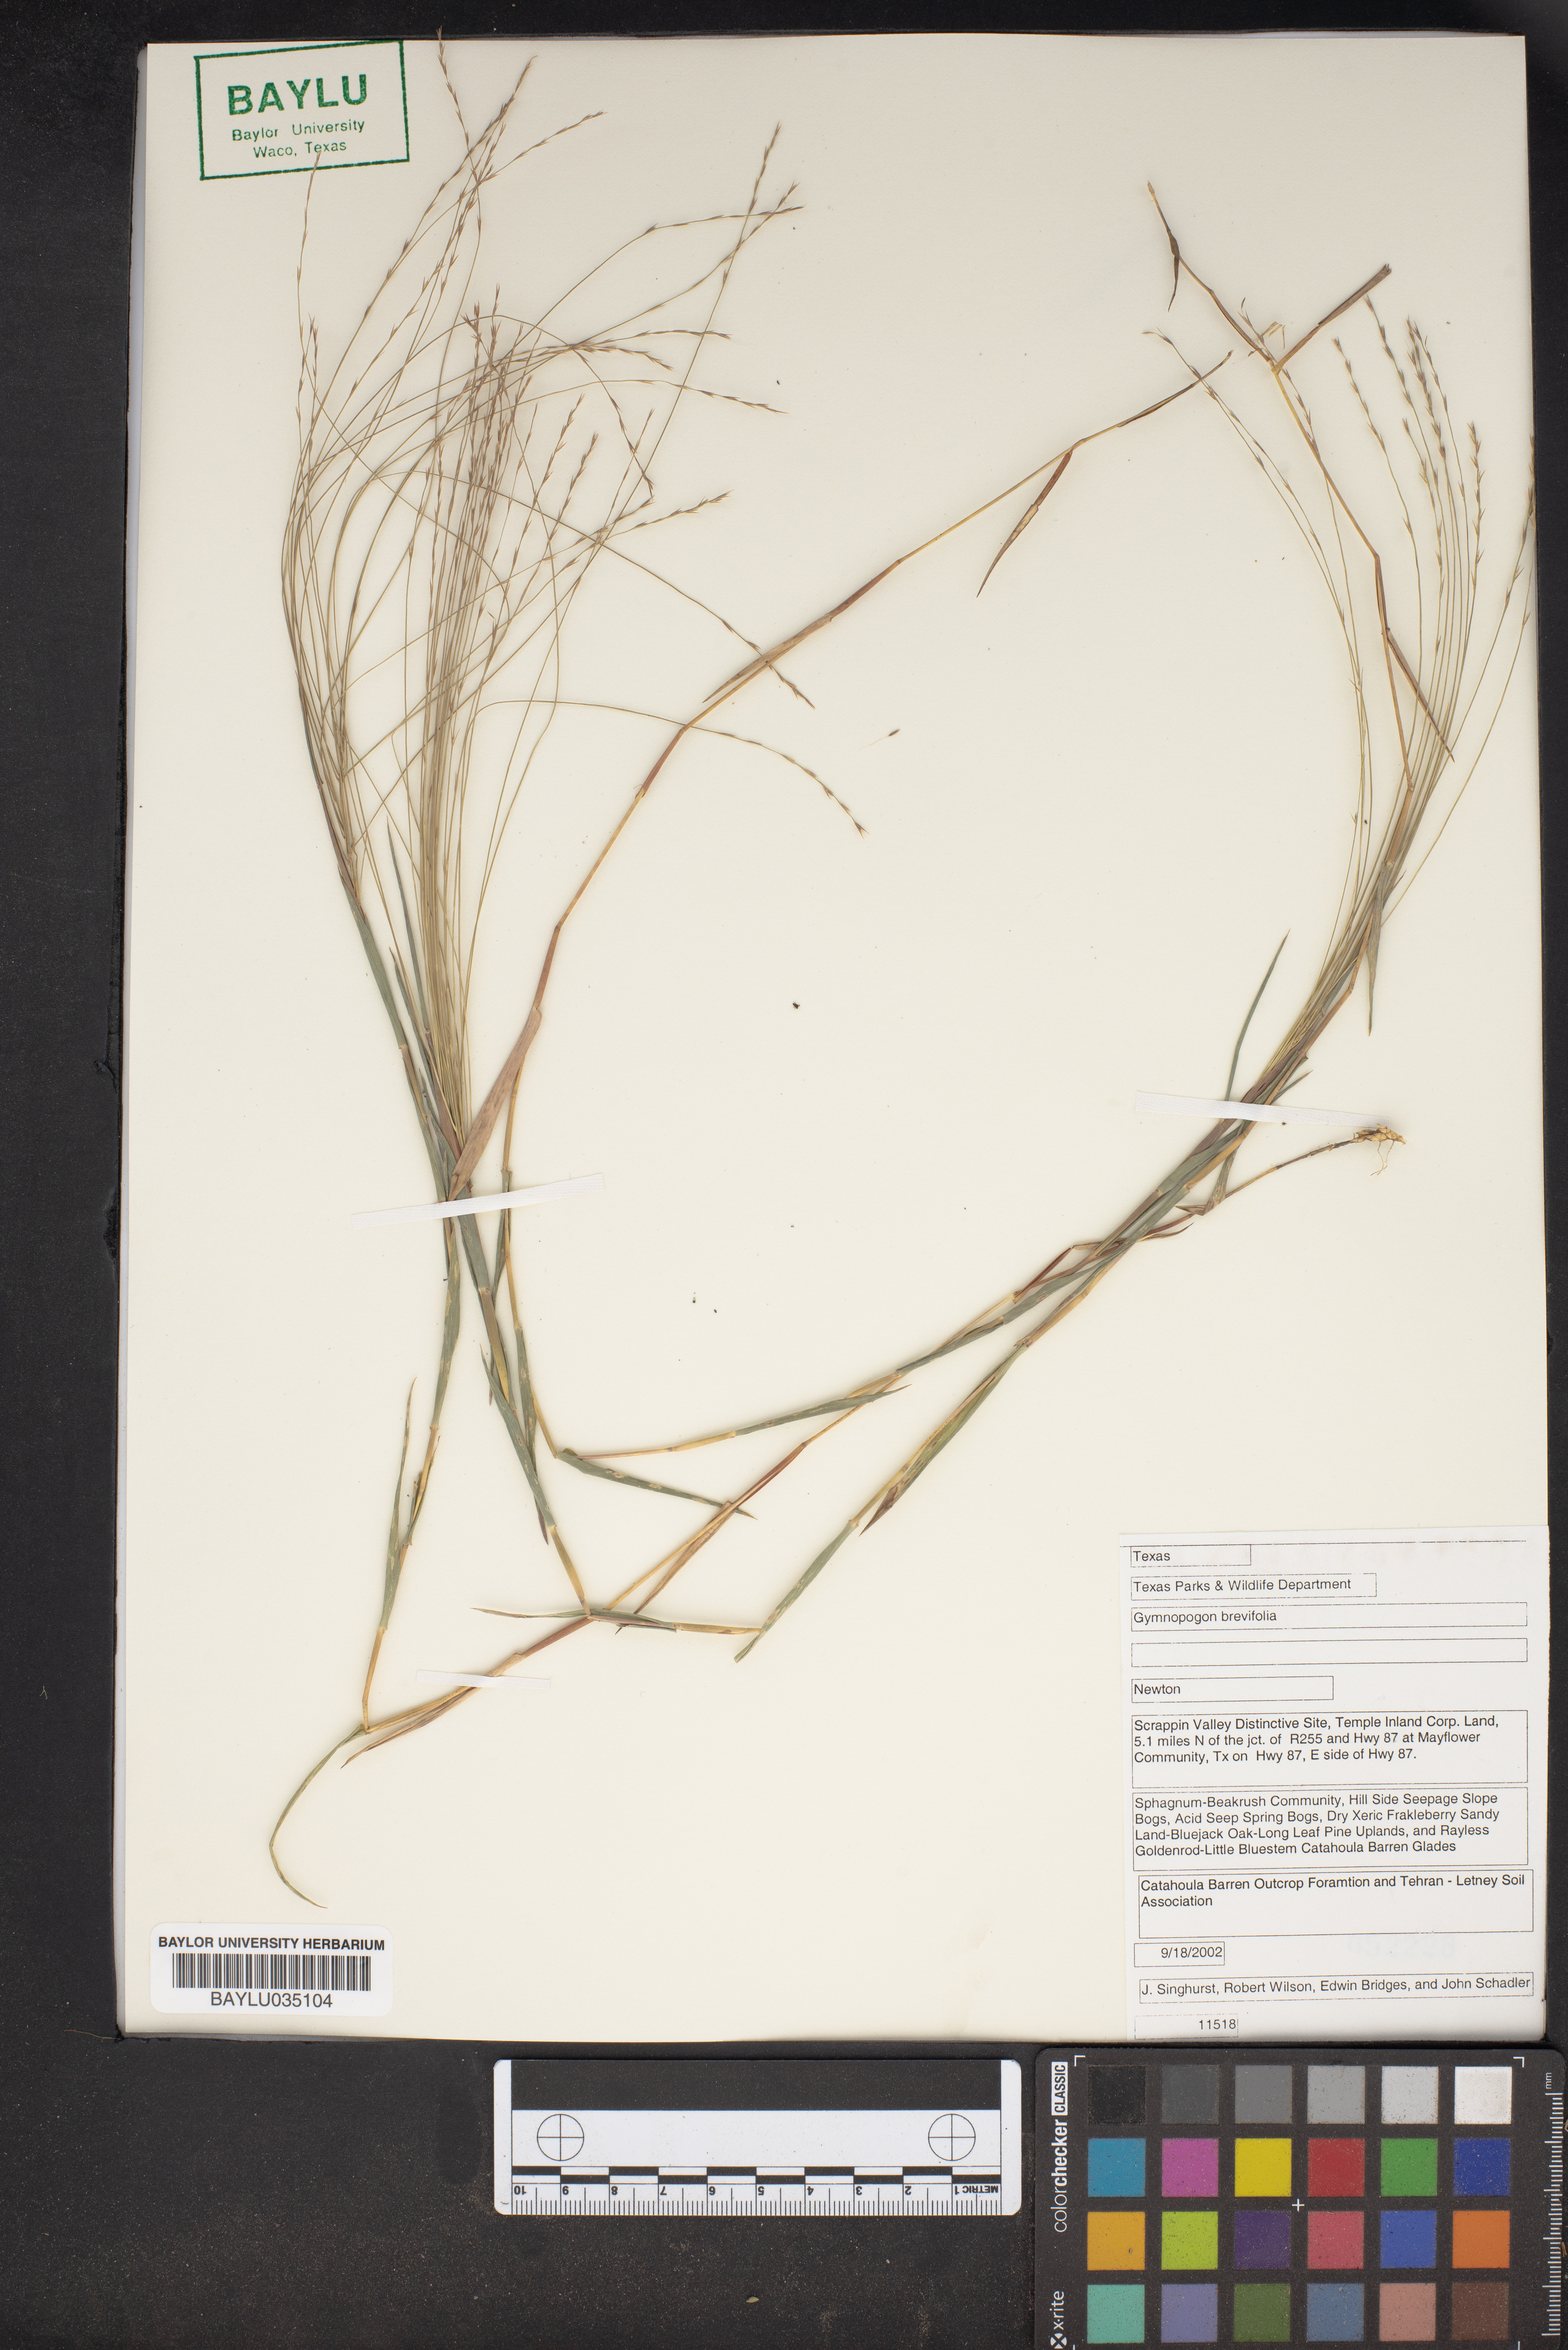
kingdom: Plantae
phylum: Tracheophyta
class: Liliopsida
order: Poales
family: Poaceae
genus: Gymnopogon
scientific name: Gymnopogon brevifolius
